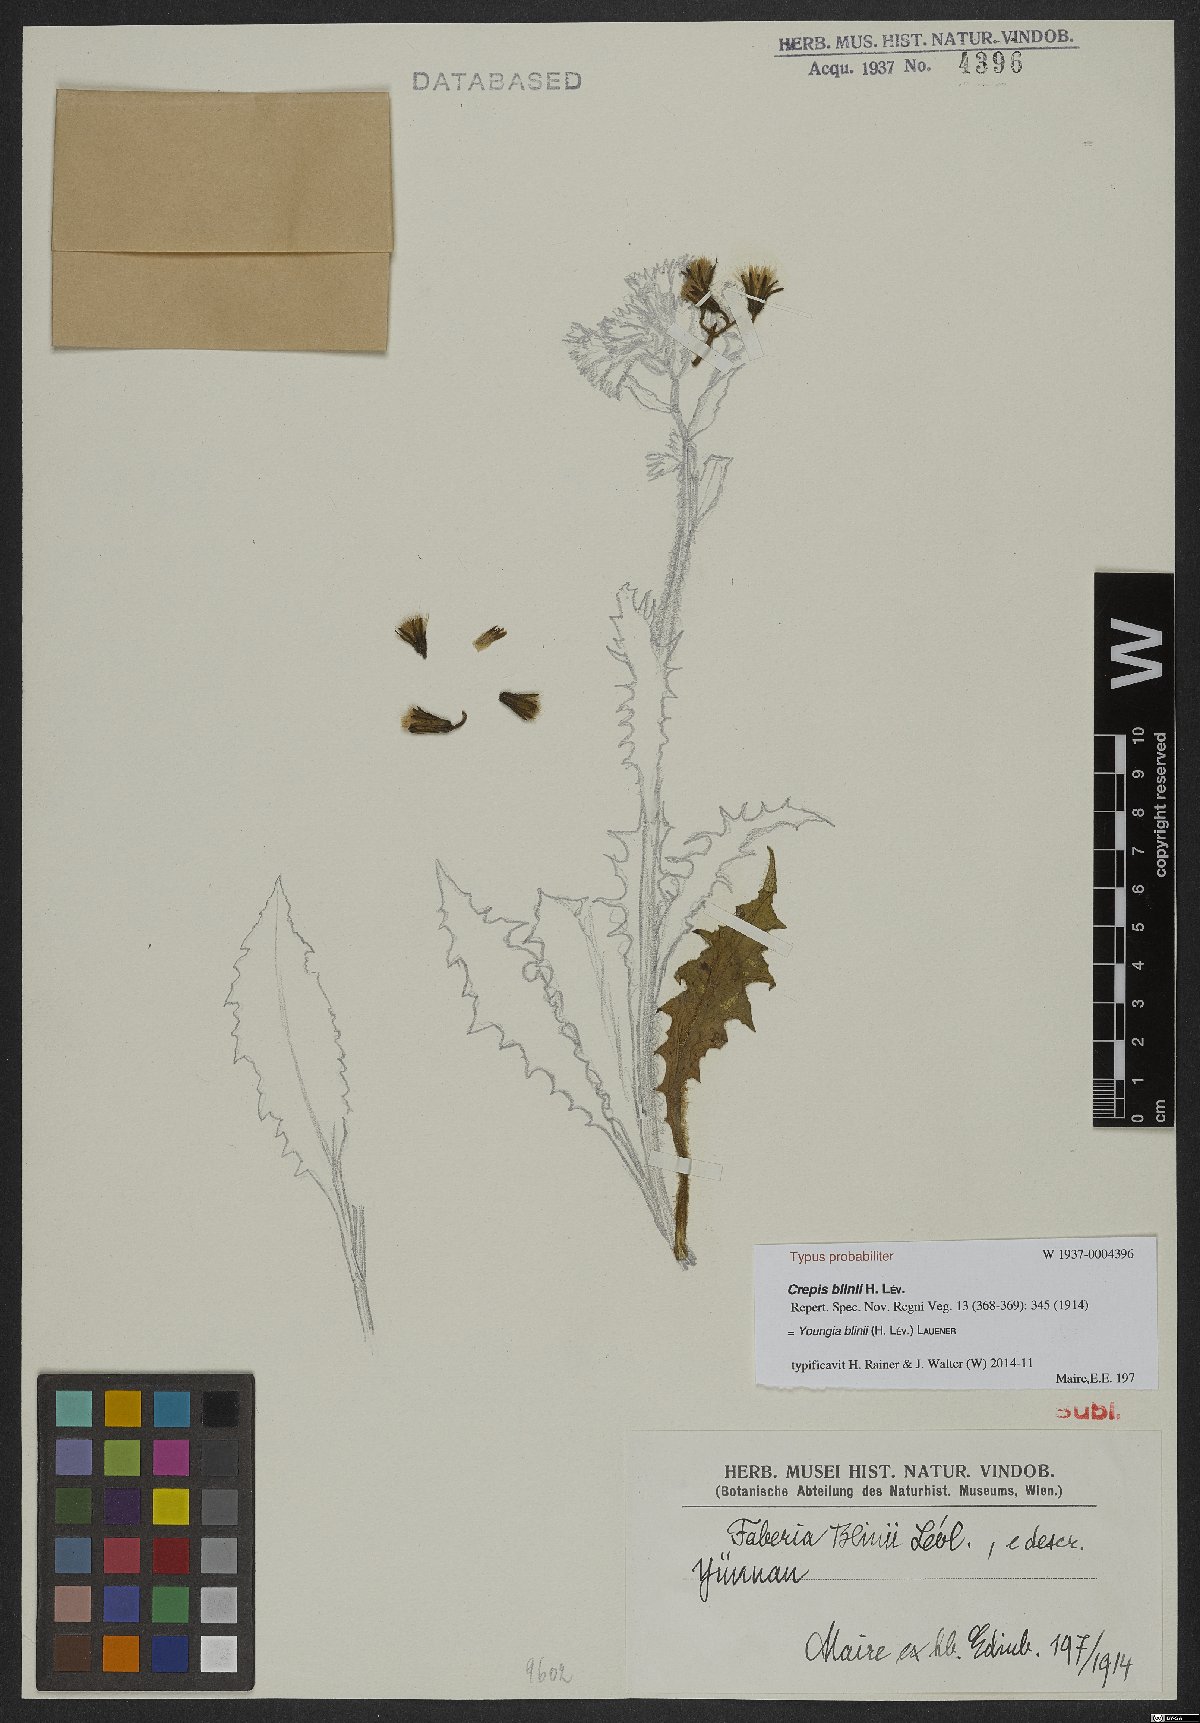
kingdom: Plantae
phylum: Tracheophyta
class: Magnoliopsida
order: Asterales
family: Asteraceae
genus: Dubyaea
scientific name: Dubyaea blinii
